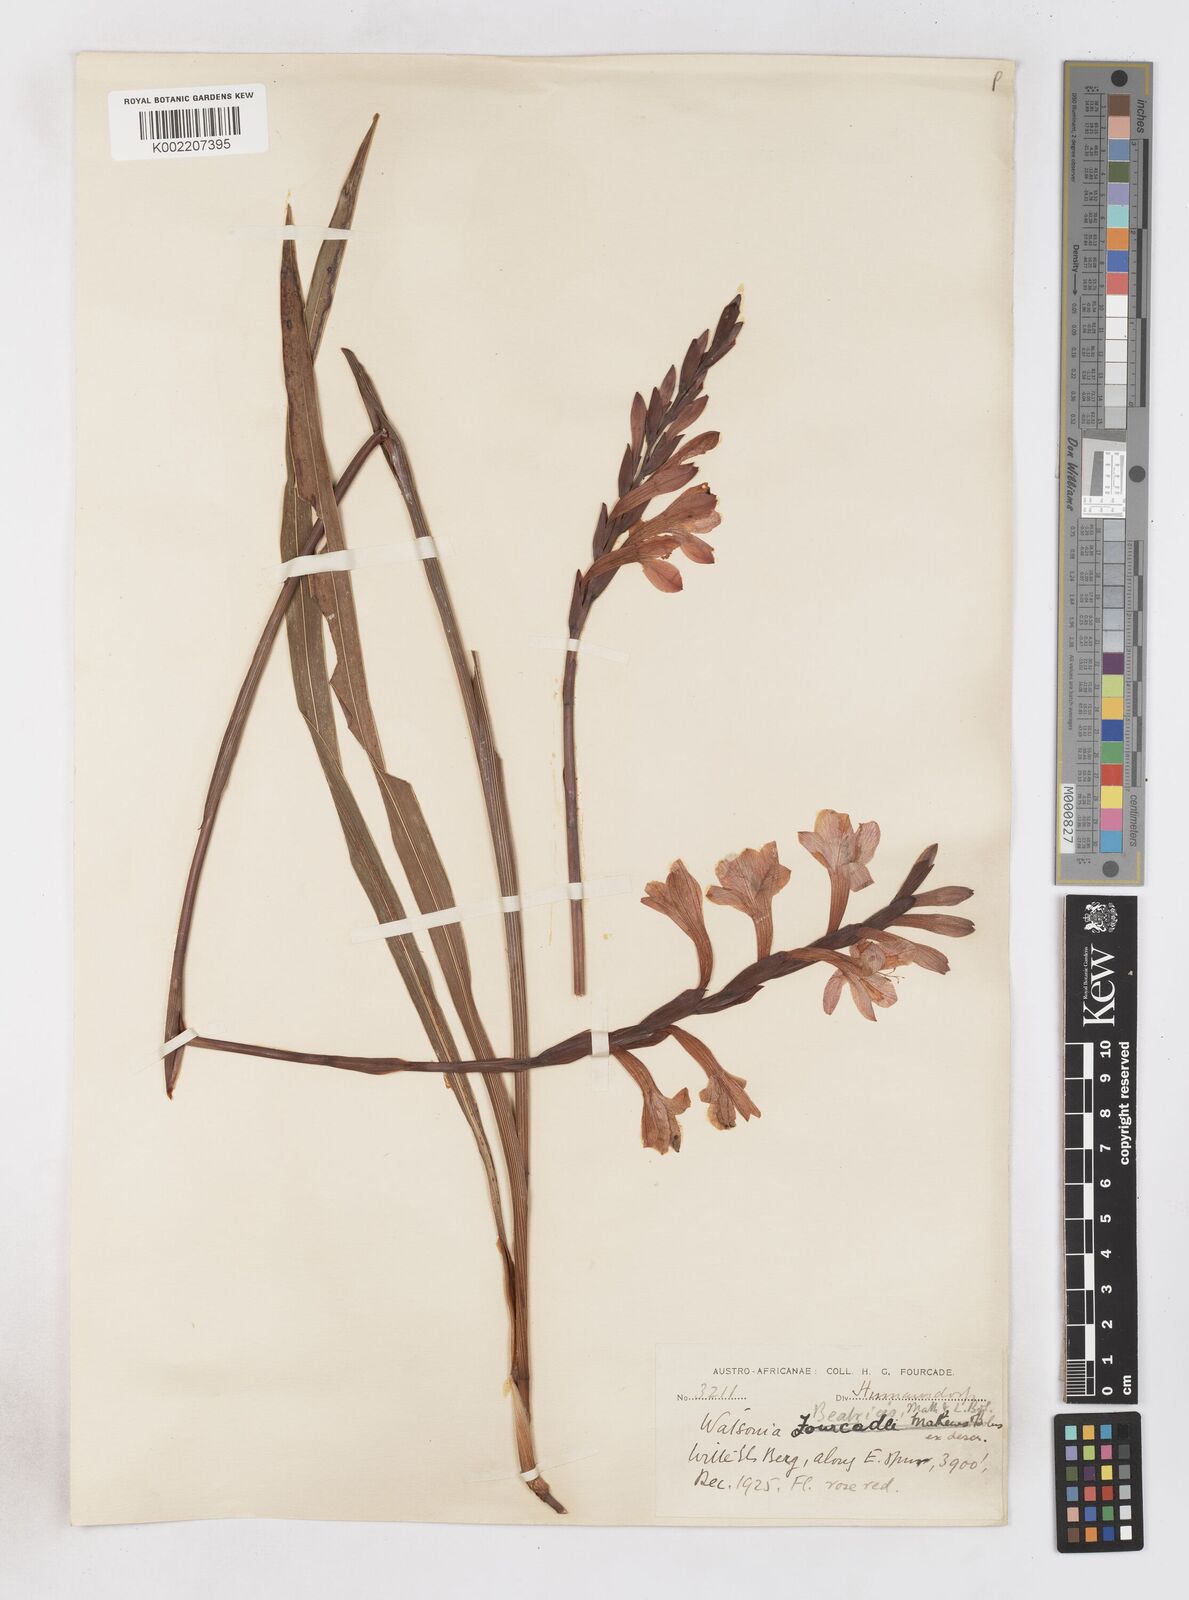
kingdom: Plantae
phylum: Tracheophyta
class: Liliopsida
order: Asparagales
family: Iridaceae
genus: Watsonia
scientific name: Watsonia pillansii
